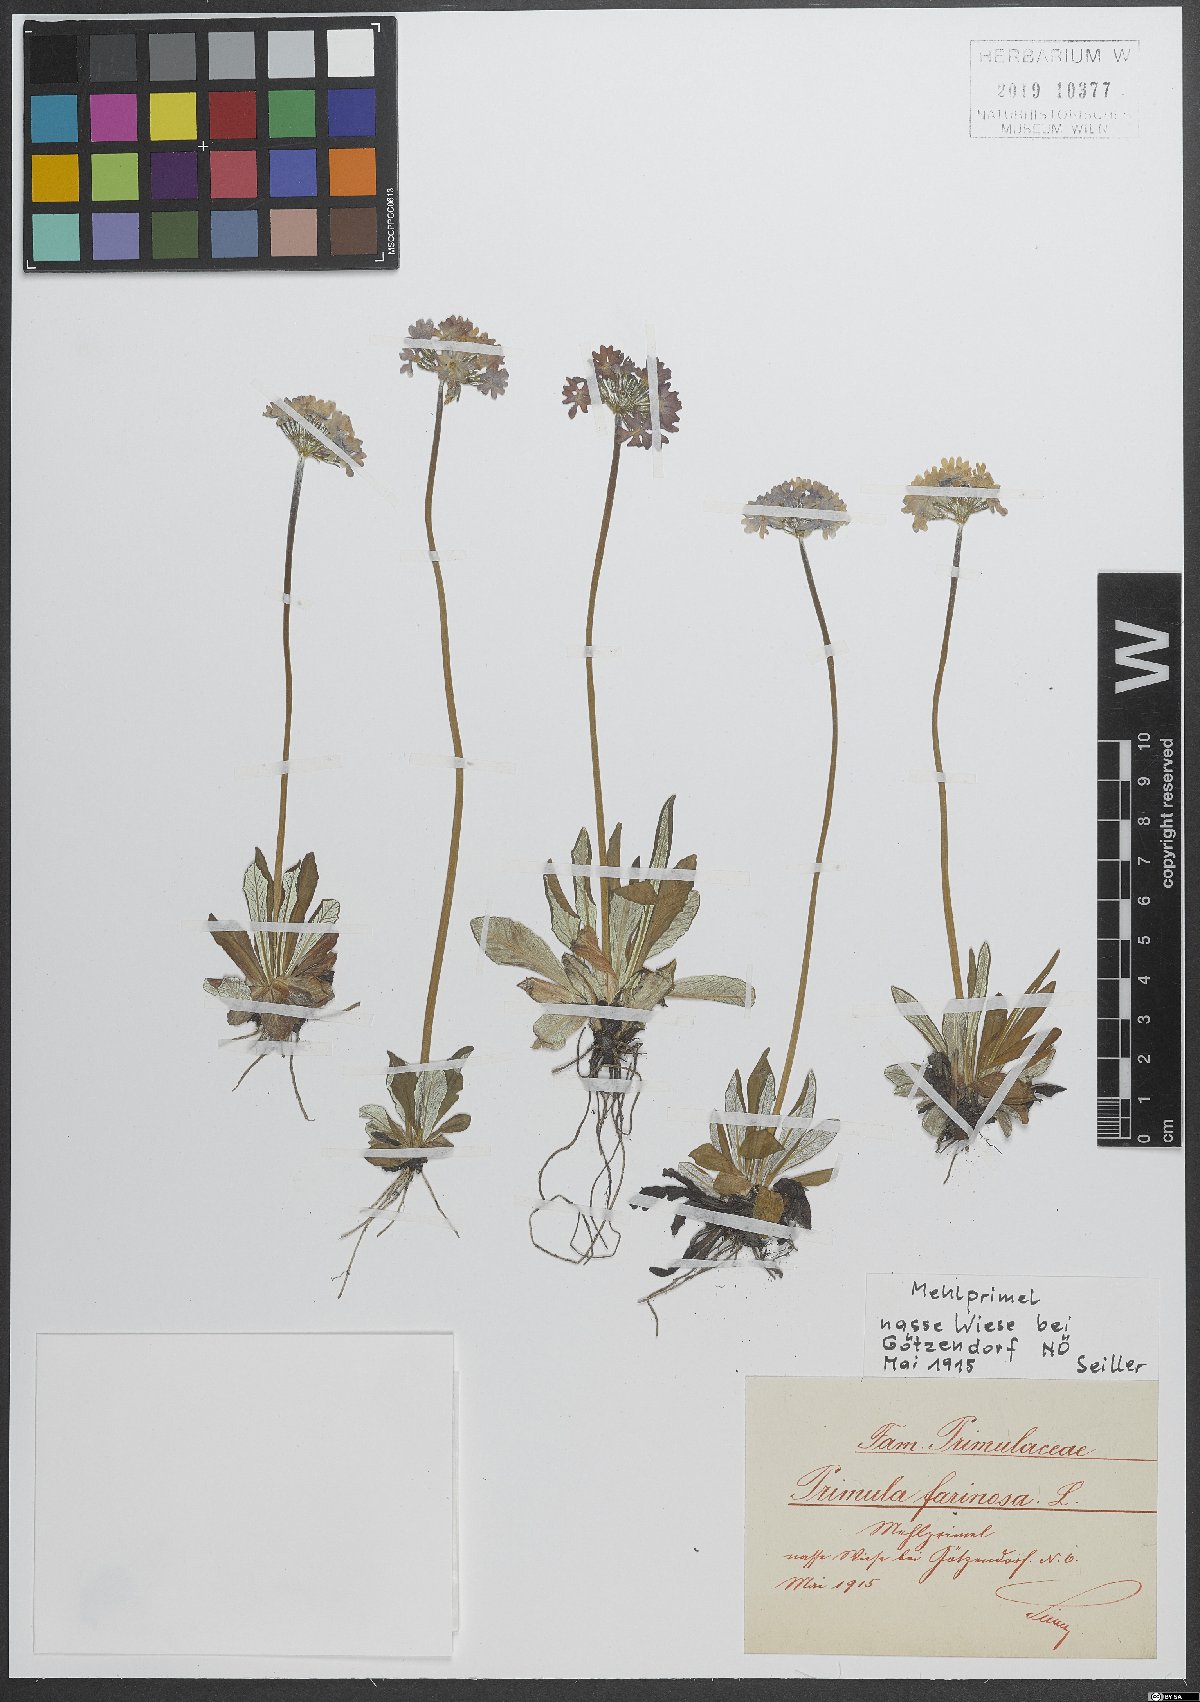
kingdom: Plantae
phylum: Tracheophyta
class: Magnoliopsida
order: Ericales
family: Primulaceae
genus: Primula
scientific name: Primula farinosa
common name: Bird's-eye primrose
